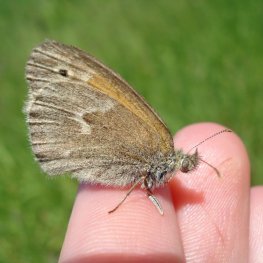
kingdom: Animalia
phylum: Arthropoda
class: Insecta
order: Lepidoptera
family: Nymphalidae
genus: Coenonympha
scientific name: Coenonympha tullia
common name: Large Heath
